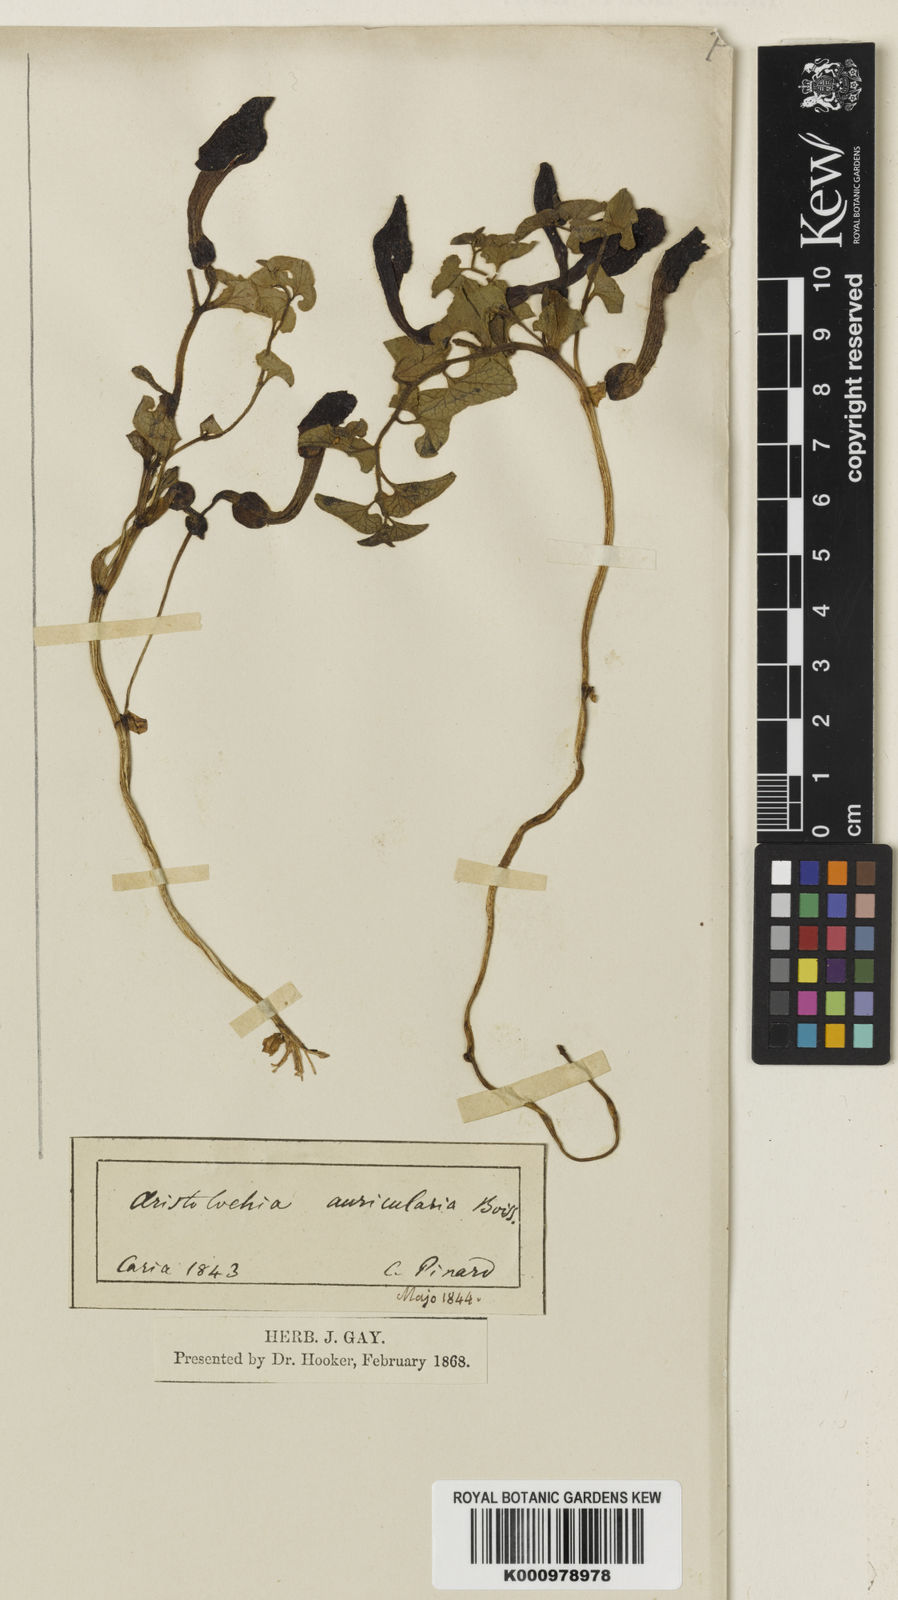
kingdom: Plantae
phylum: Tracheophyta
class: Magnoliopsida
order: Piperales
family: Aristolochiaceae
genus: Aristolochia
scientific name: Aristolochia auricularia
